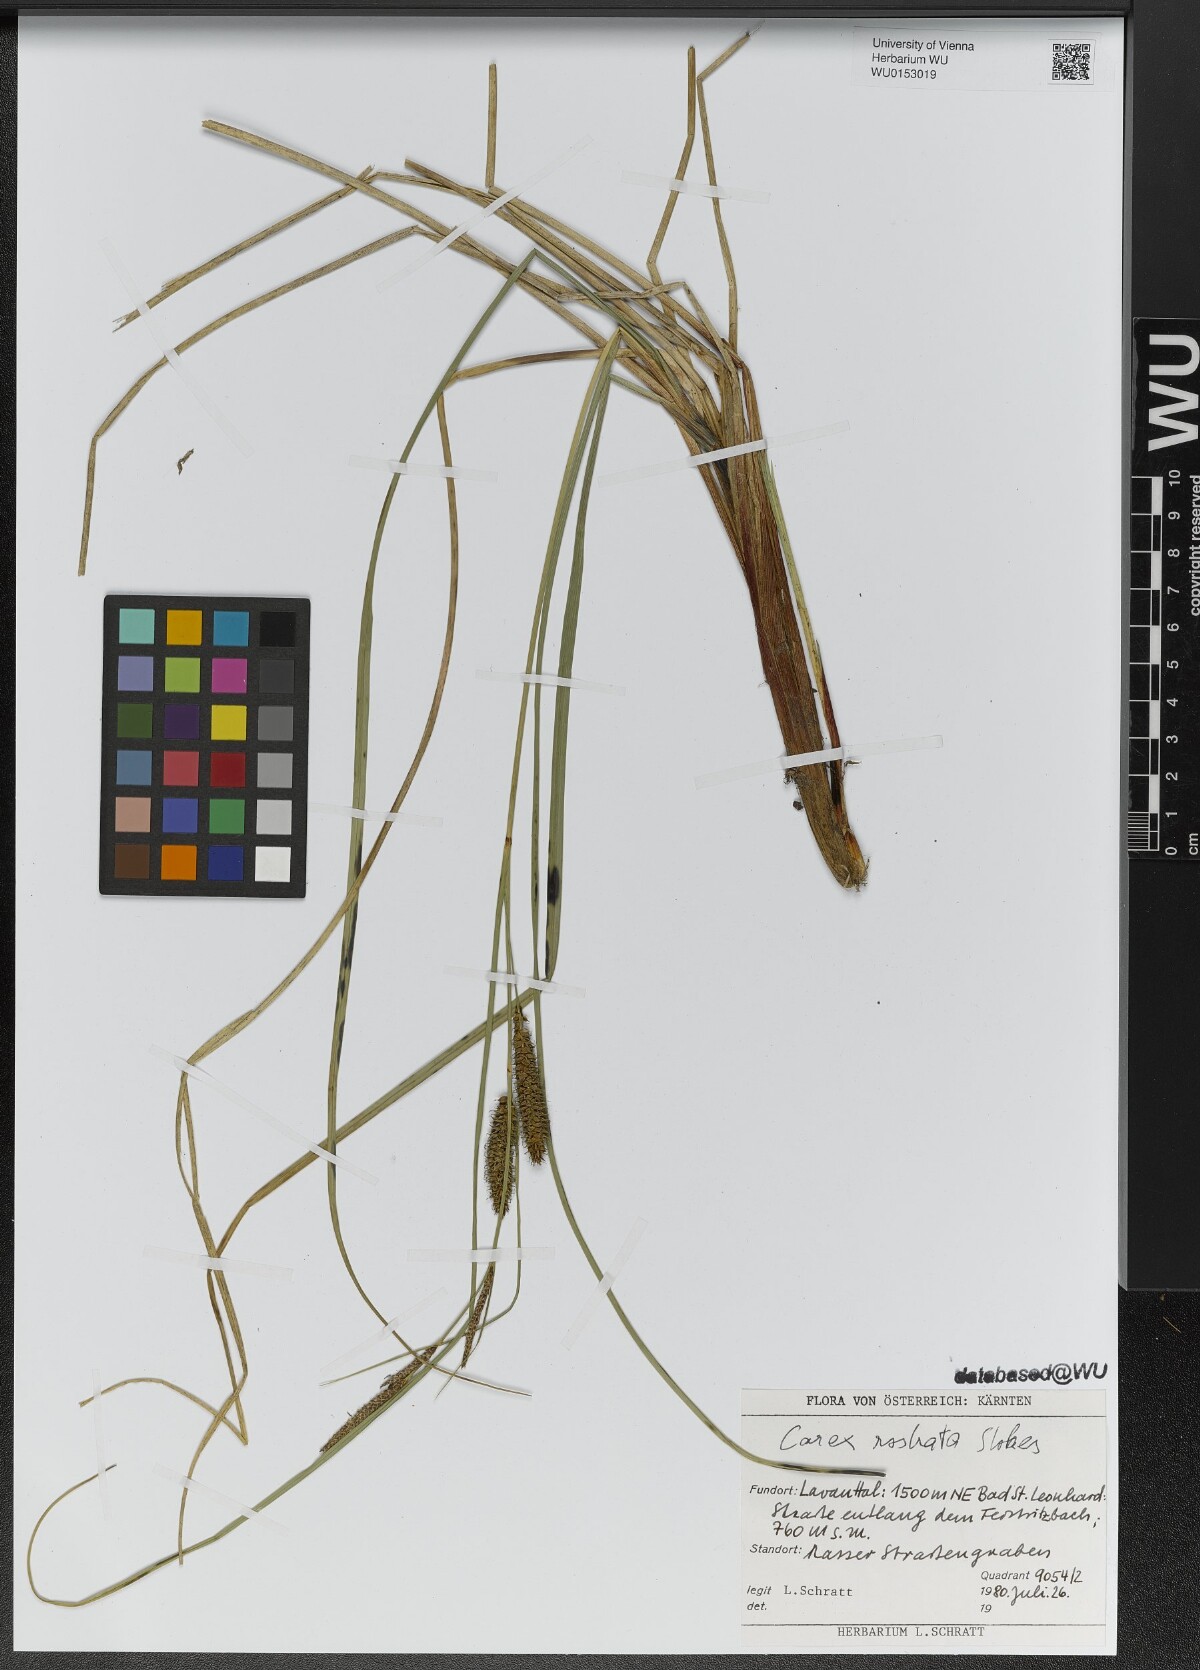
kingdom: Plantae
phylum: Tracheophyta
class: Liliopsida
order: Poales
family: Cyperaceae
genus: Carex
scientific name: Carex rostrata
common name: Bottle sedge
